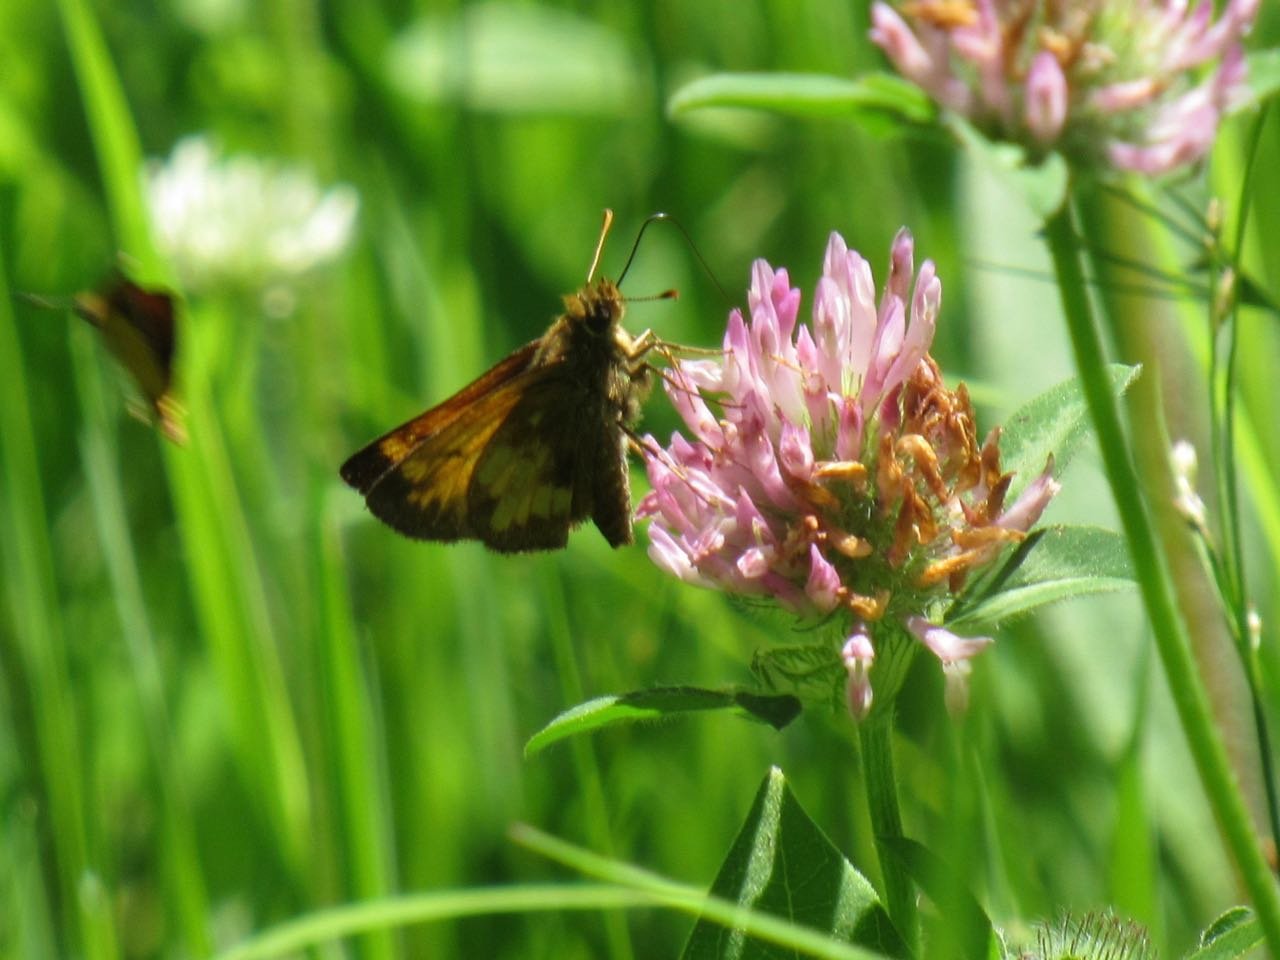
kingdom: Animalia
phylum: Arthropoda
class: Insecta
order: Lepidoptera
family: Hesperiidae
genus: Lon
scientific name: Lon hobomok
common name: Hobomok Skipper
